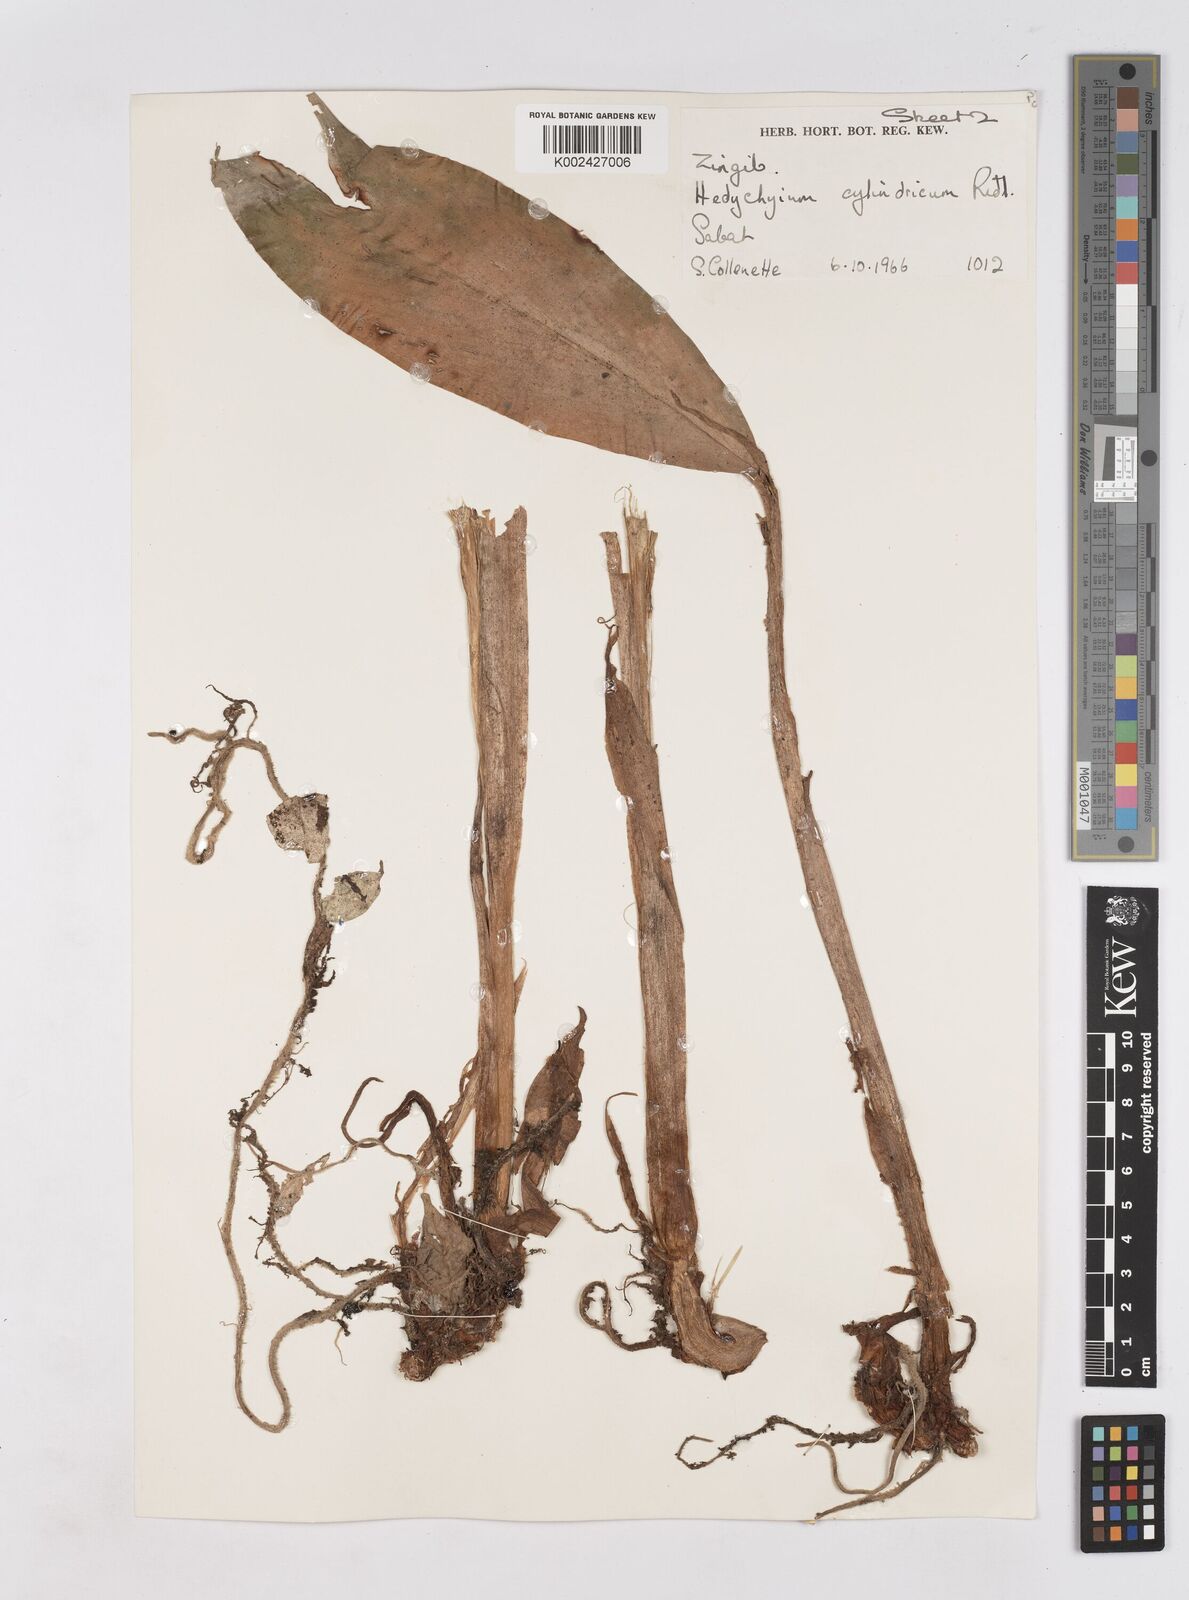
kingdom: Plantae
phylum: Tracheophyta
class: Liliopsida
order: Zingiberales
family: Zingiberaceae
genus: Hedychium
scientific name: Hedychium cylindricum
